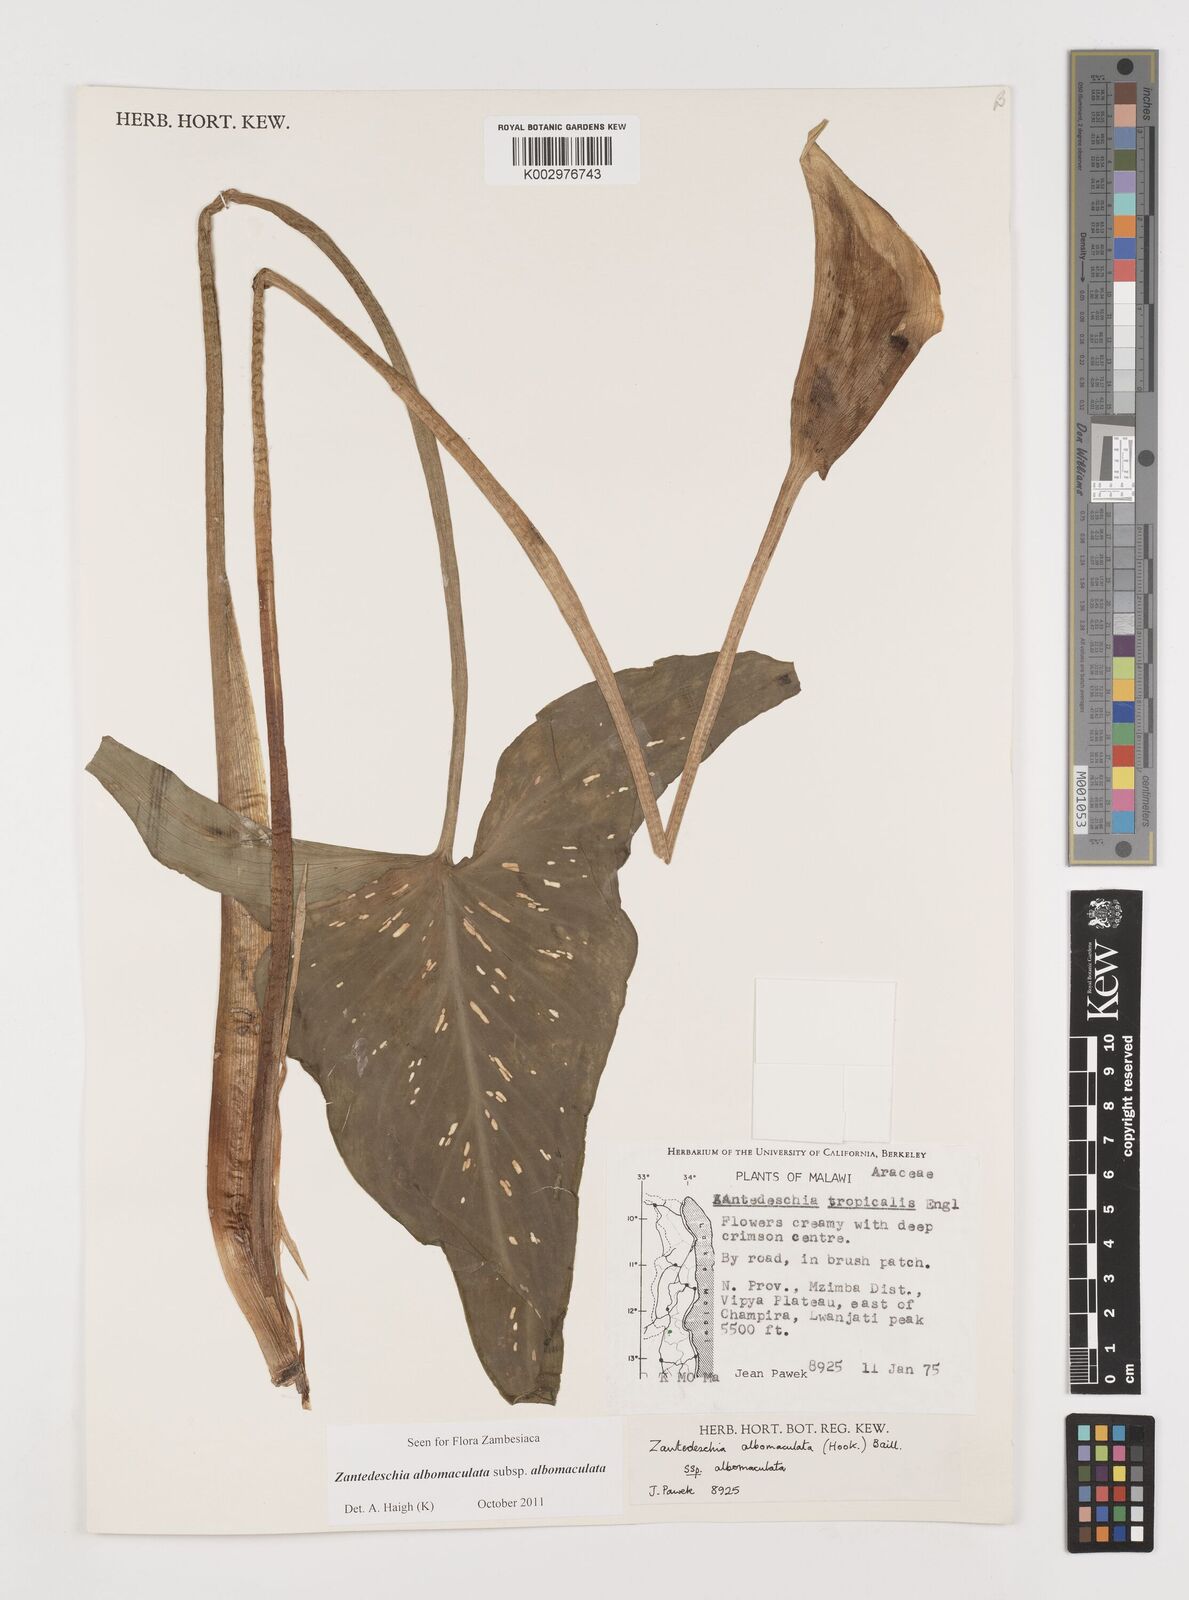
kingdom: Plantae
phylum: Tracheophyta
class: Liliopsida
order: Alismatales
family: Araceae
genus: Zantedeschia
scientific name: Zantedeschia albomaculata
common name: Spotted calla lily
